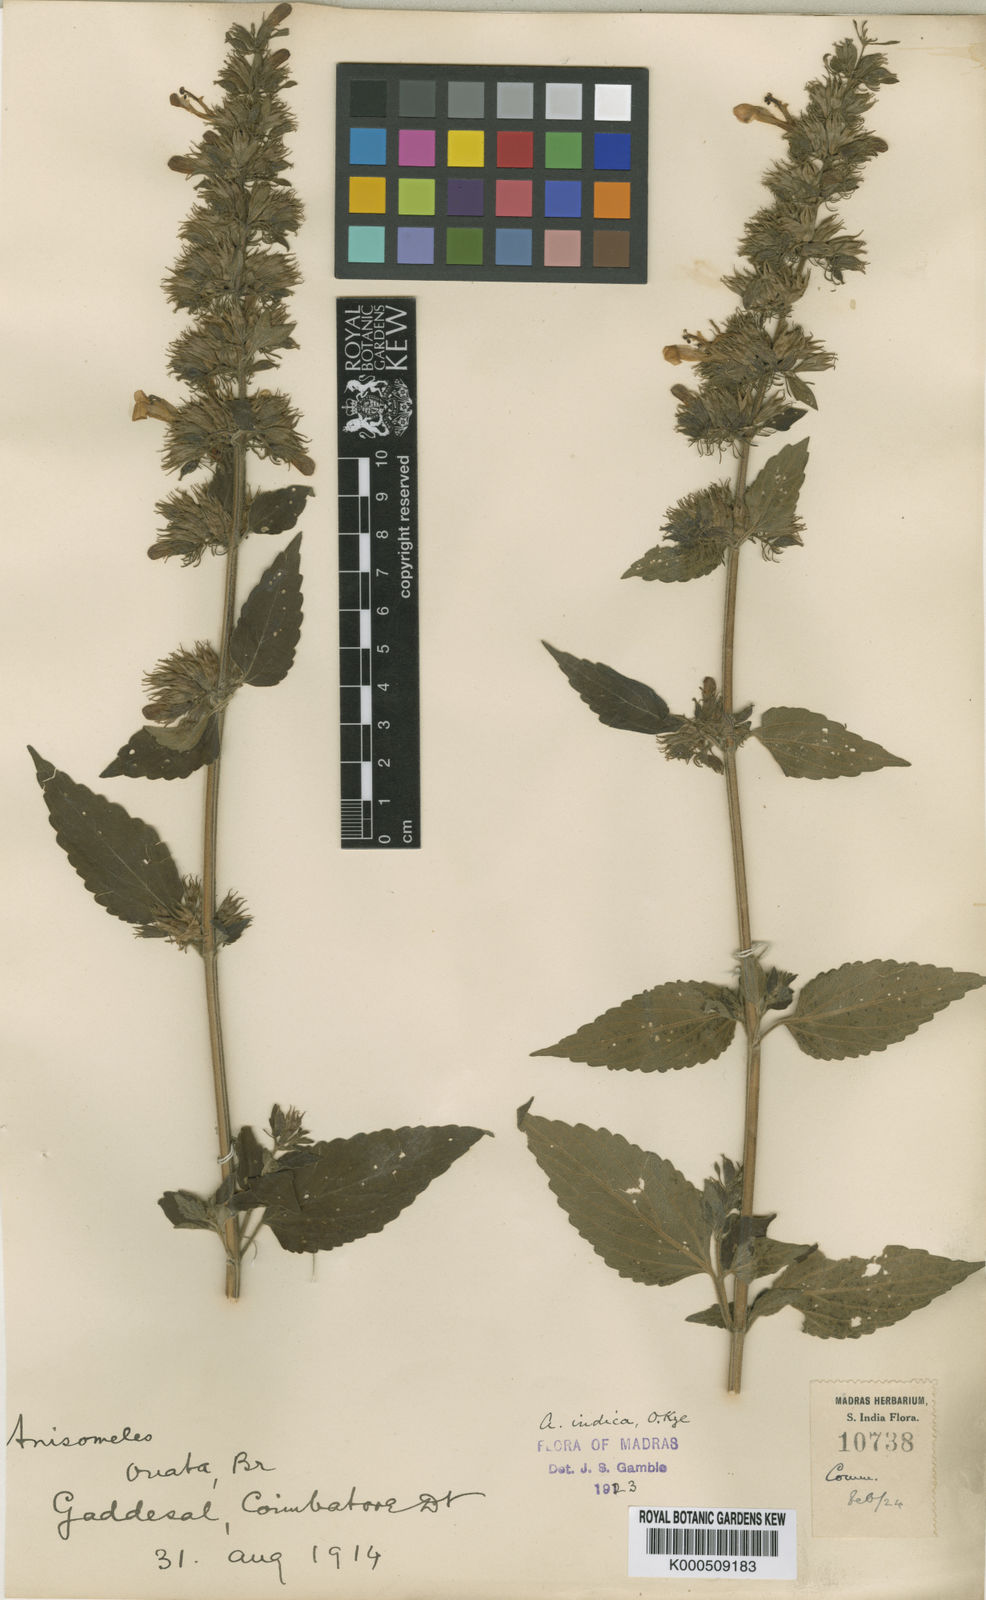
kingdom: Plantae
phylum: Tracheophyta
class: Magnoliopsida
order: Lamiales
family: Lamiaceae
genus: Anisomeles
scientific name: Anisomeles indica
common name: Catmint
